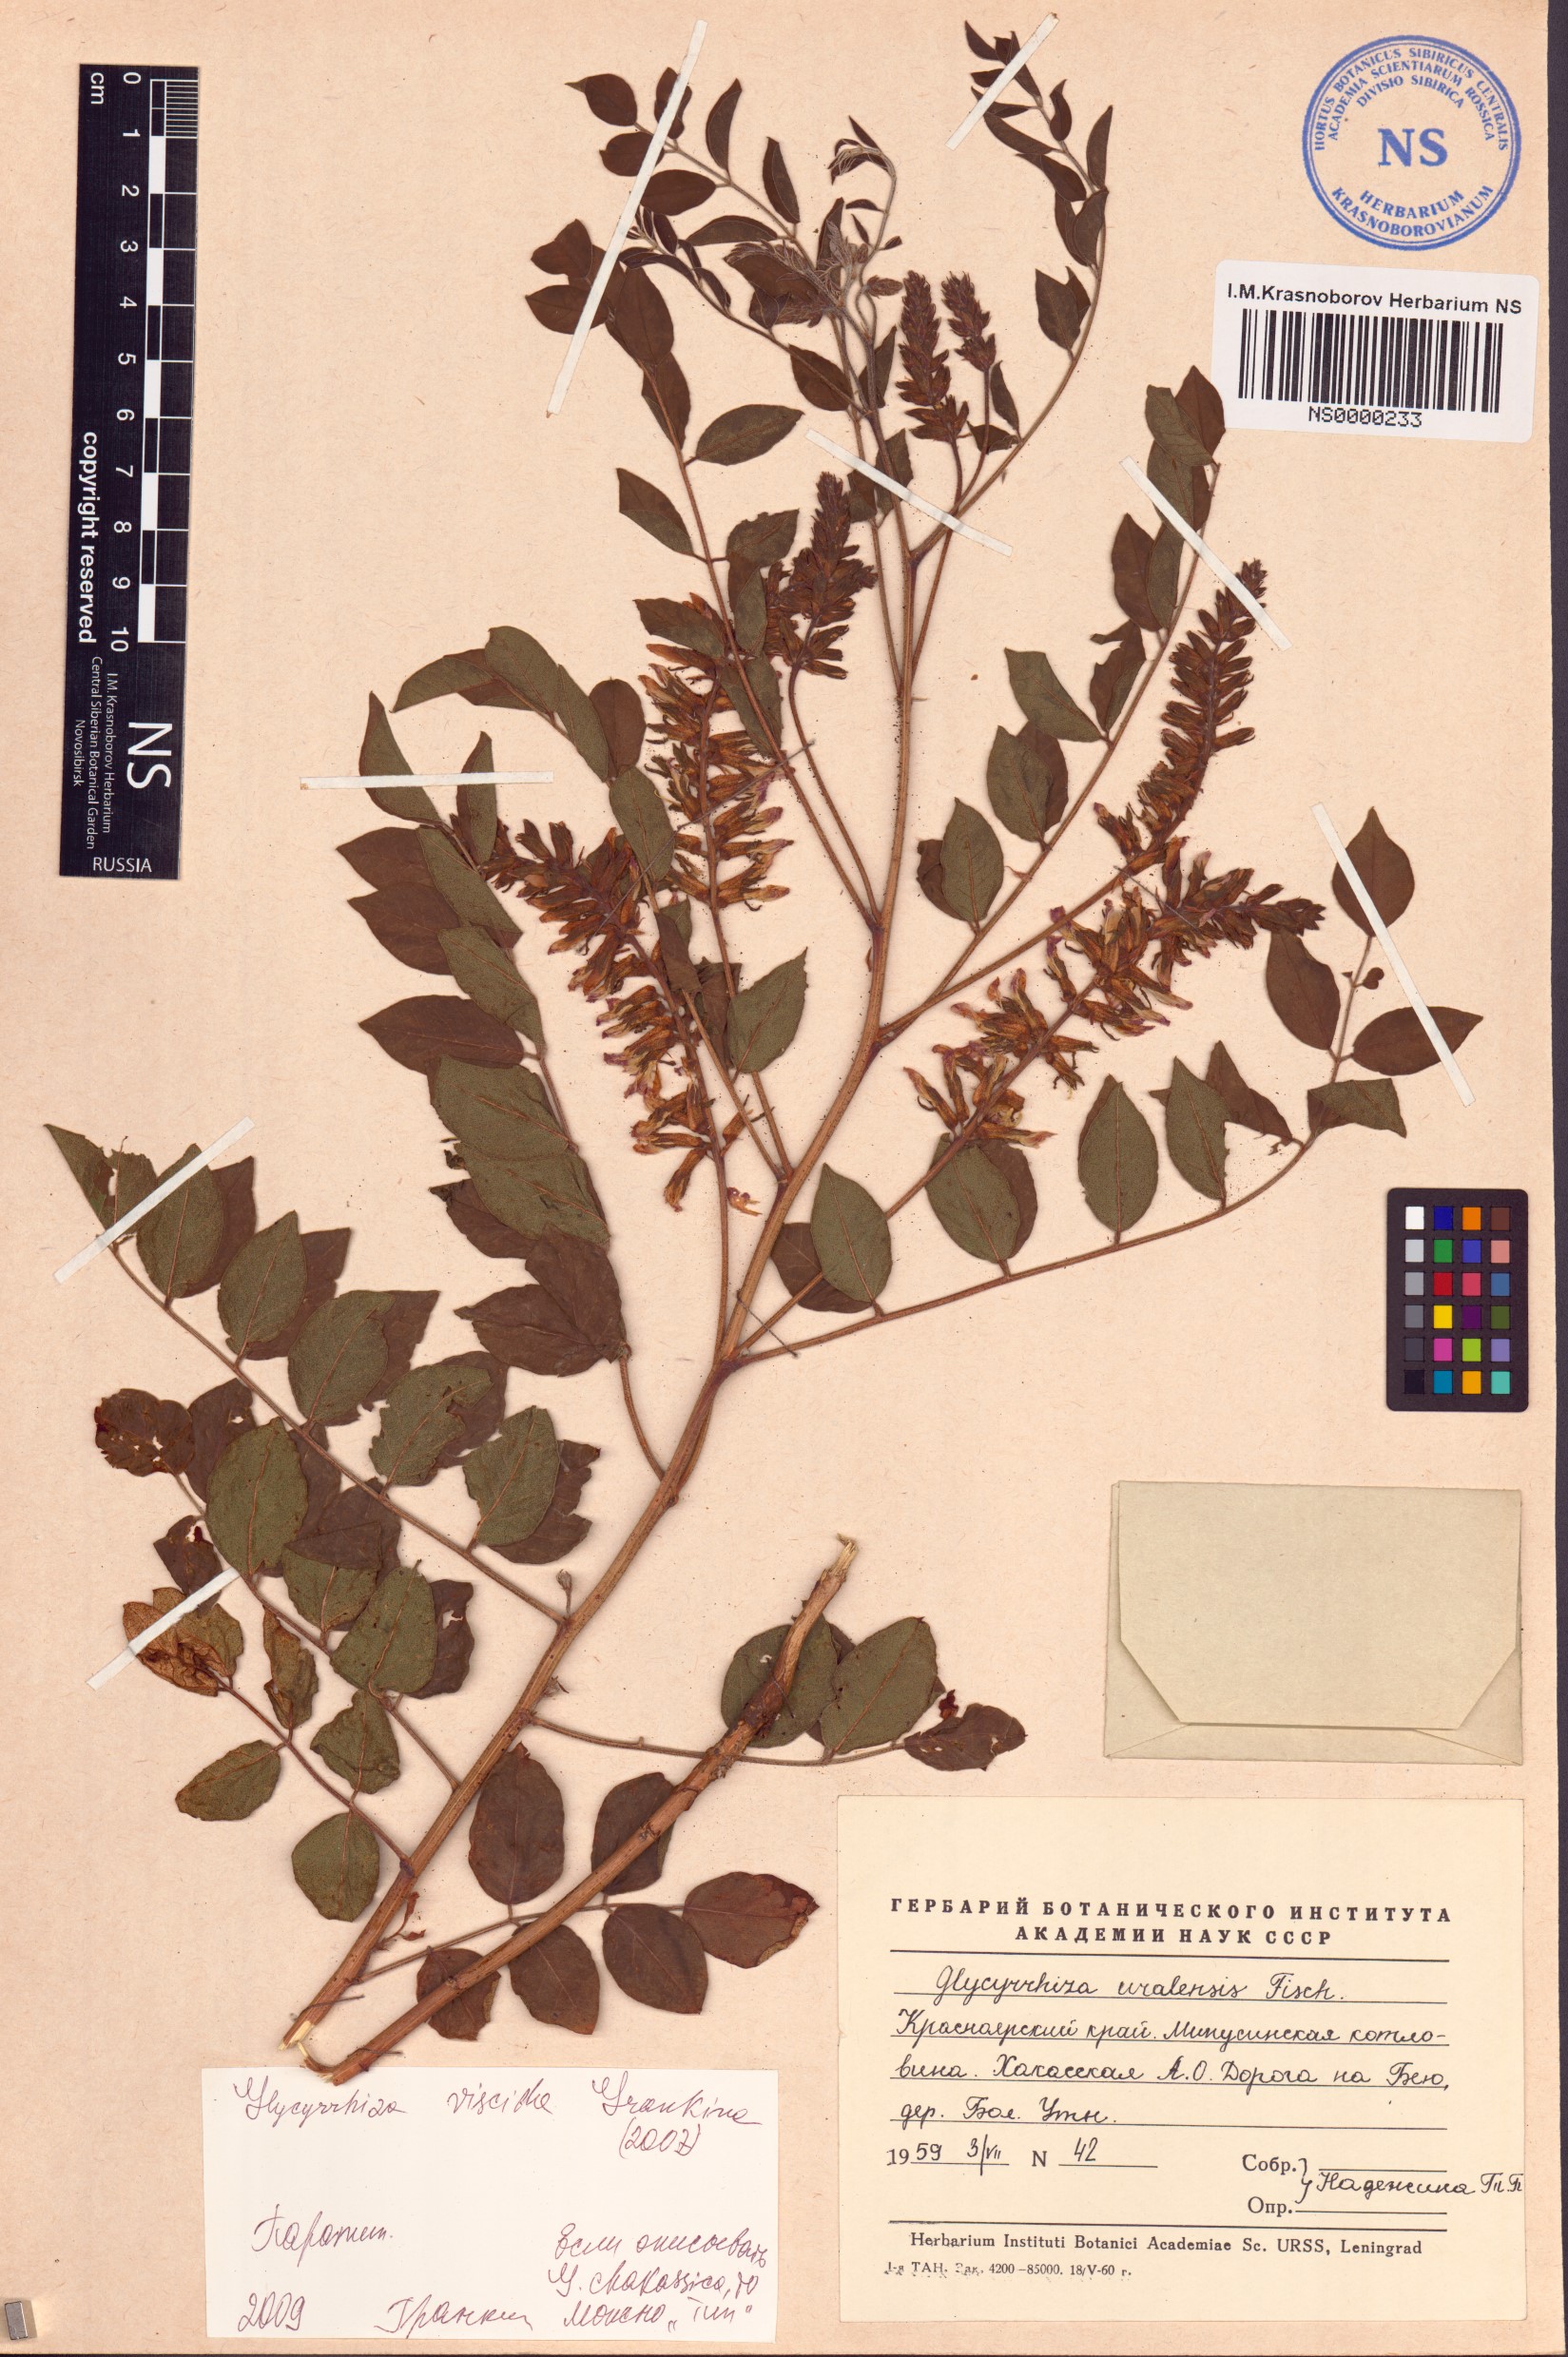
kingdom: Plantae
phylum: Tracheophyta
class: Magnoliopsida
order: Fabales
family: Fabaceae
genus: Glycyrrhiza
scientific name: Glycyrrhiza uralensis
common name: Chinese licorice
